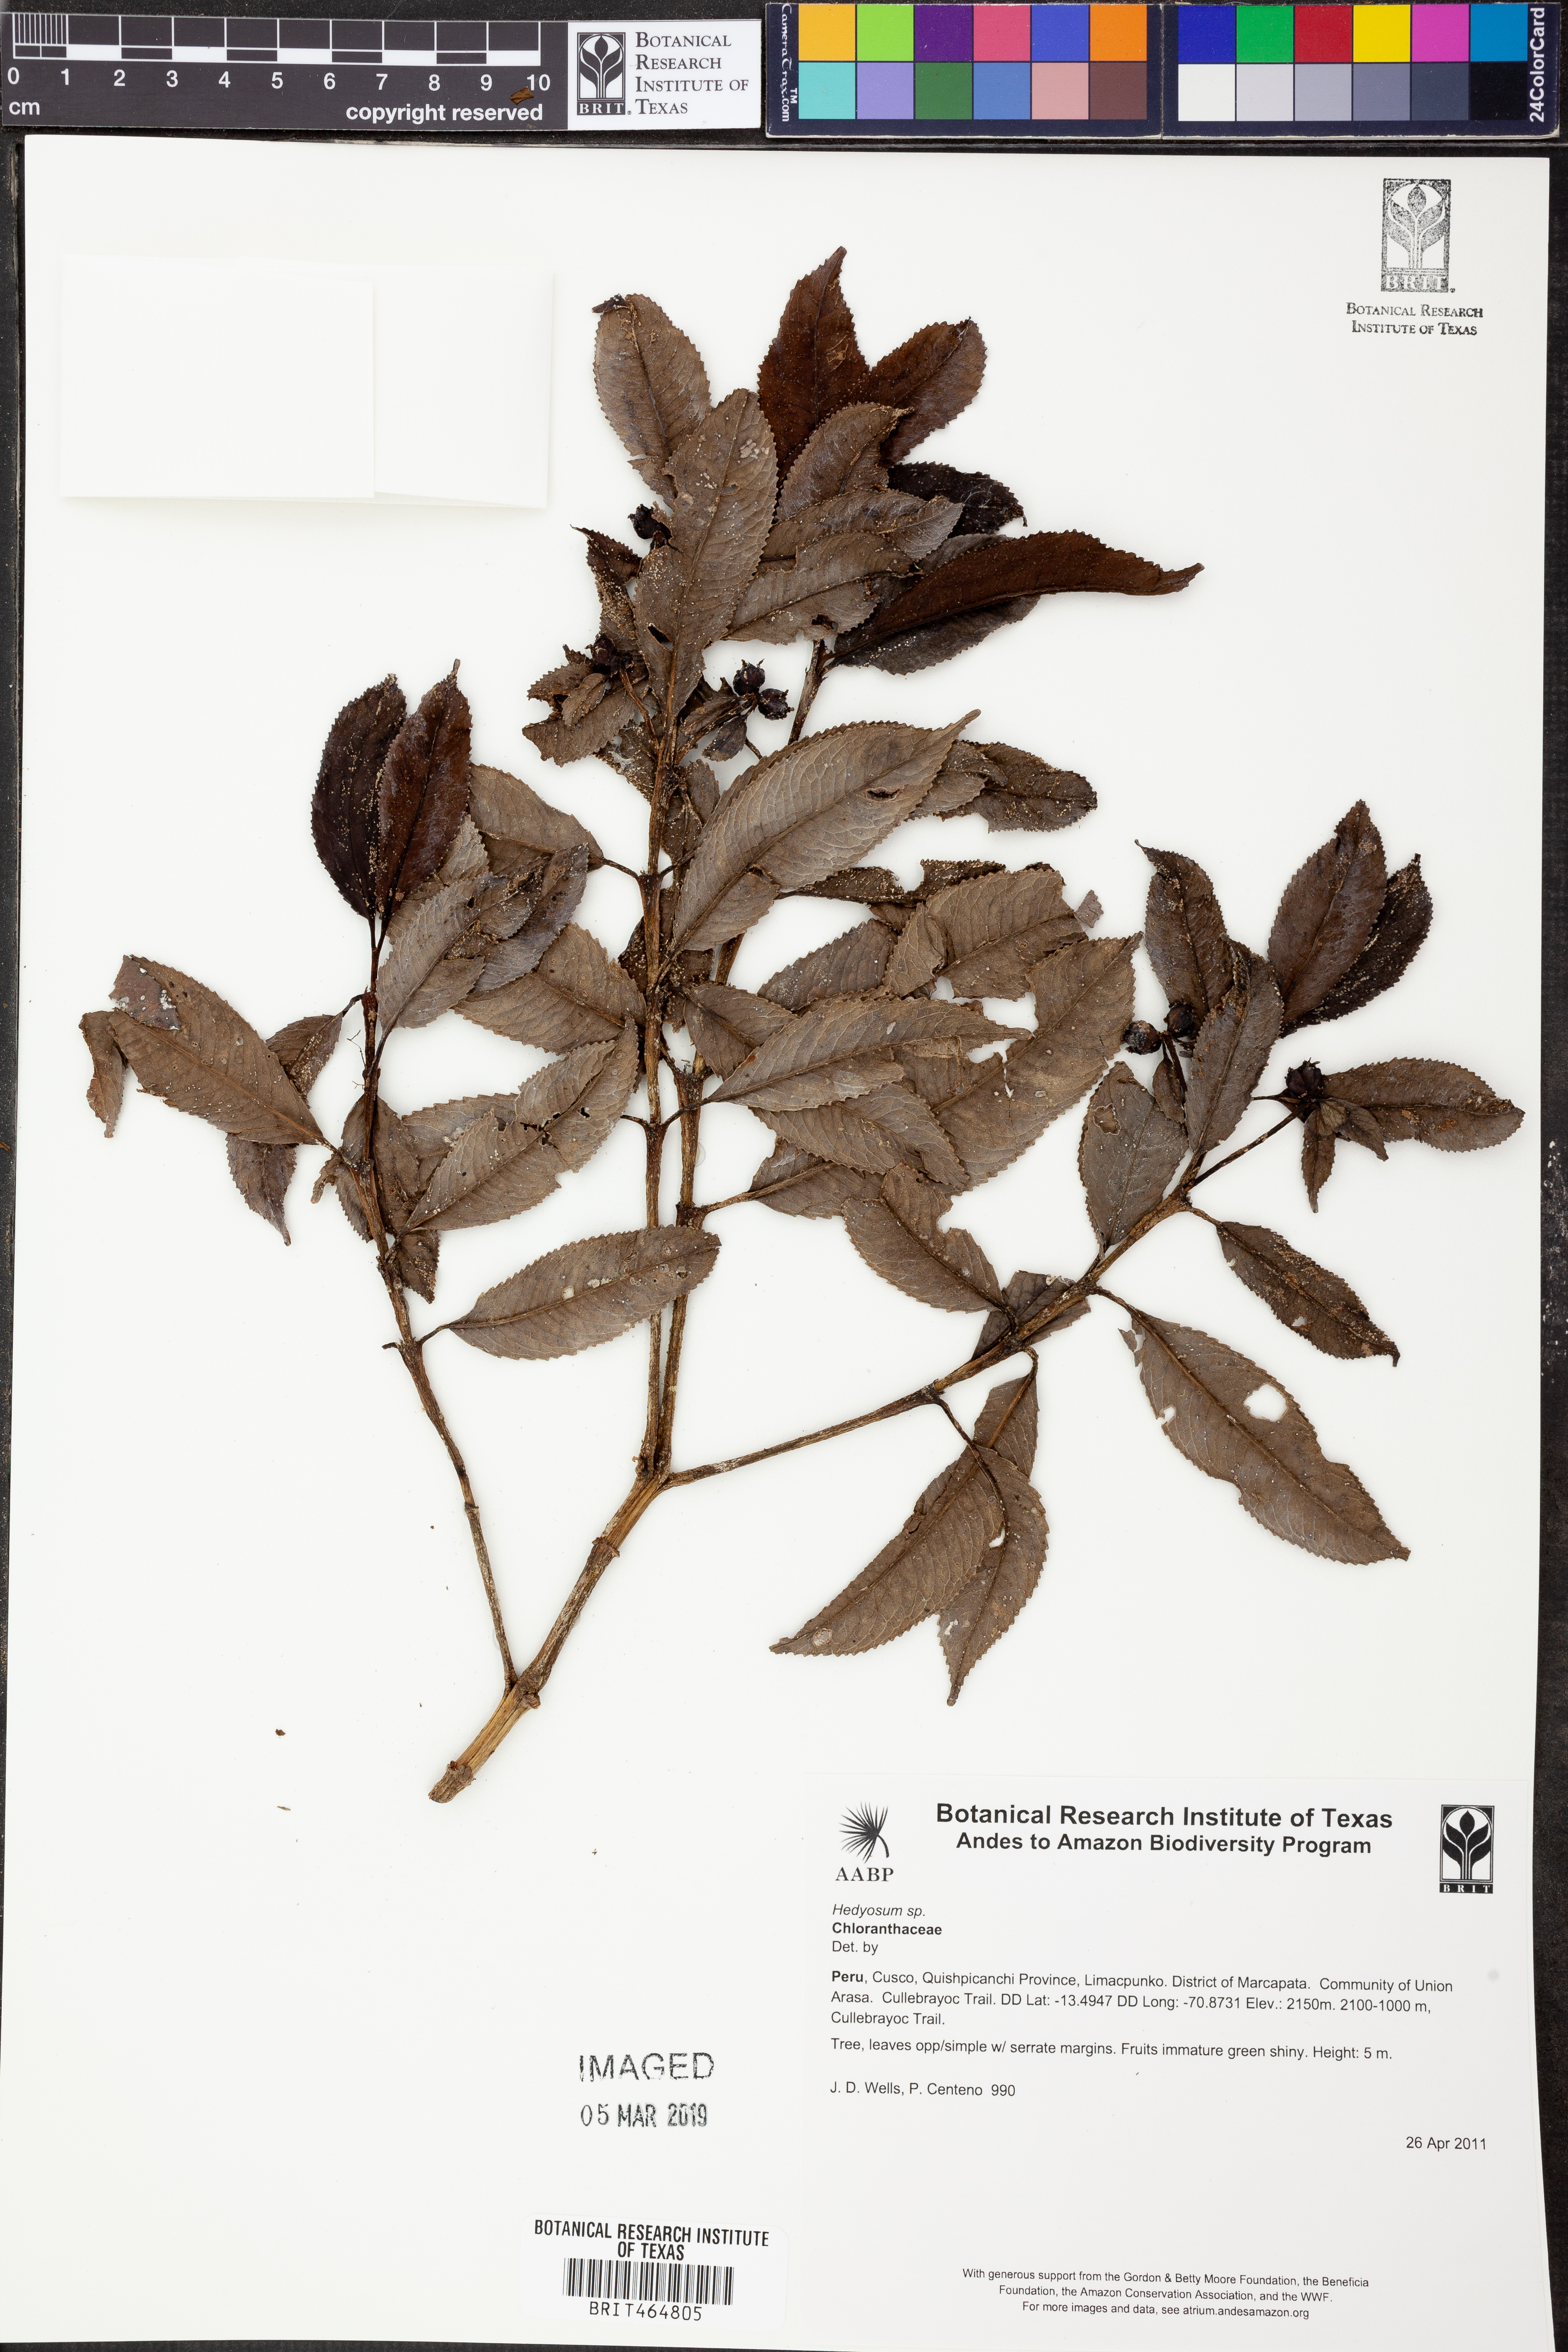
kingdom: Plantae
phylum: Tracheophyta
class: Magnoliopsida
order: Chloranthales
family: Chloranthaceae
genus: Hedyosmum
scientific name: Hedyosmum
